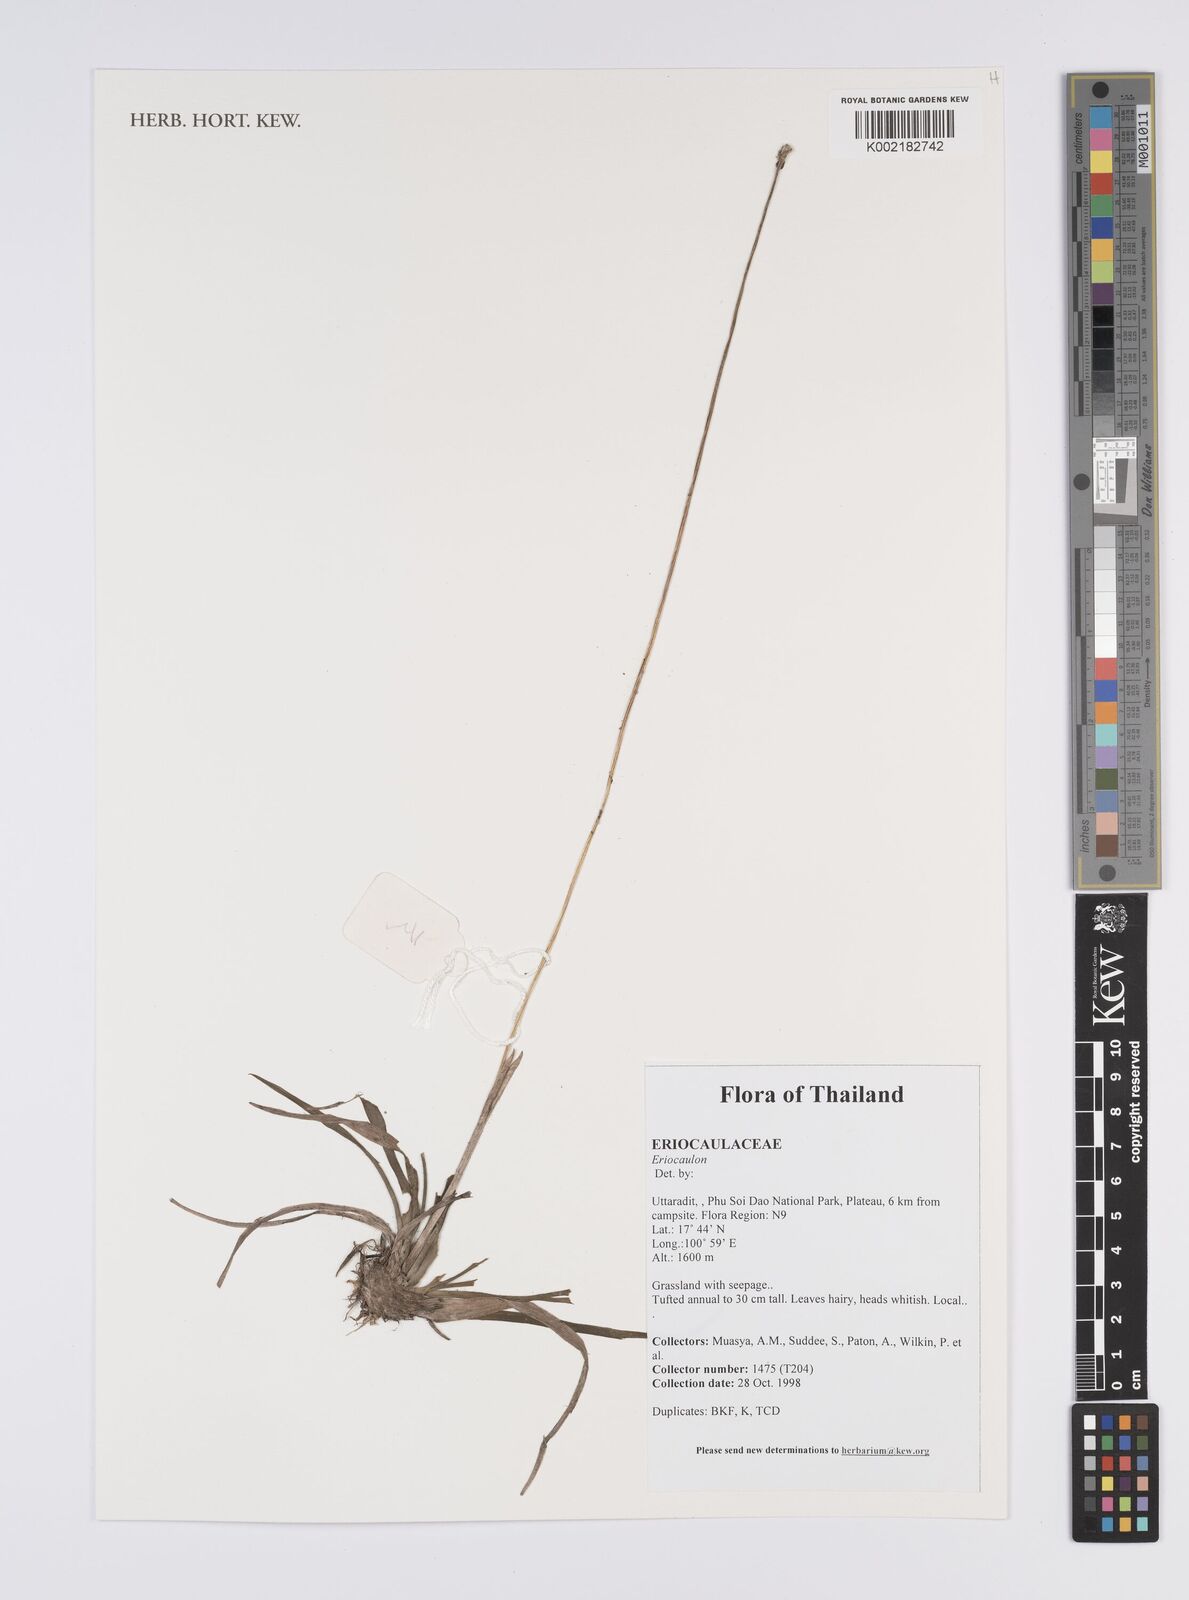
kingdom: Plantae
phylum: Tracheophyta
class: Liliopsida
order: Poales
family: Eriocaulaceae
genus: Eriocaulon
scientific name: Eriocaulon
